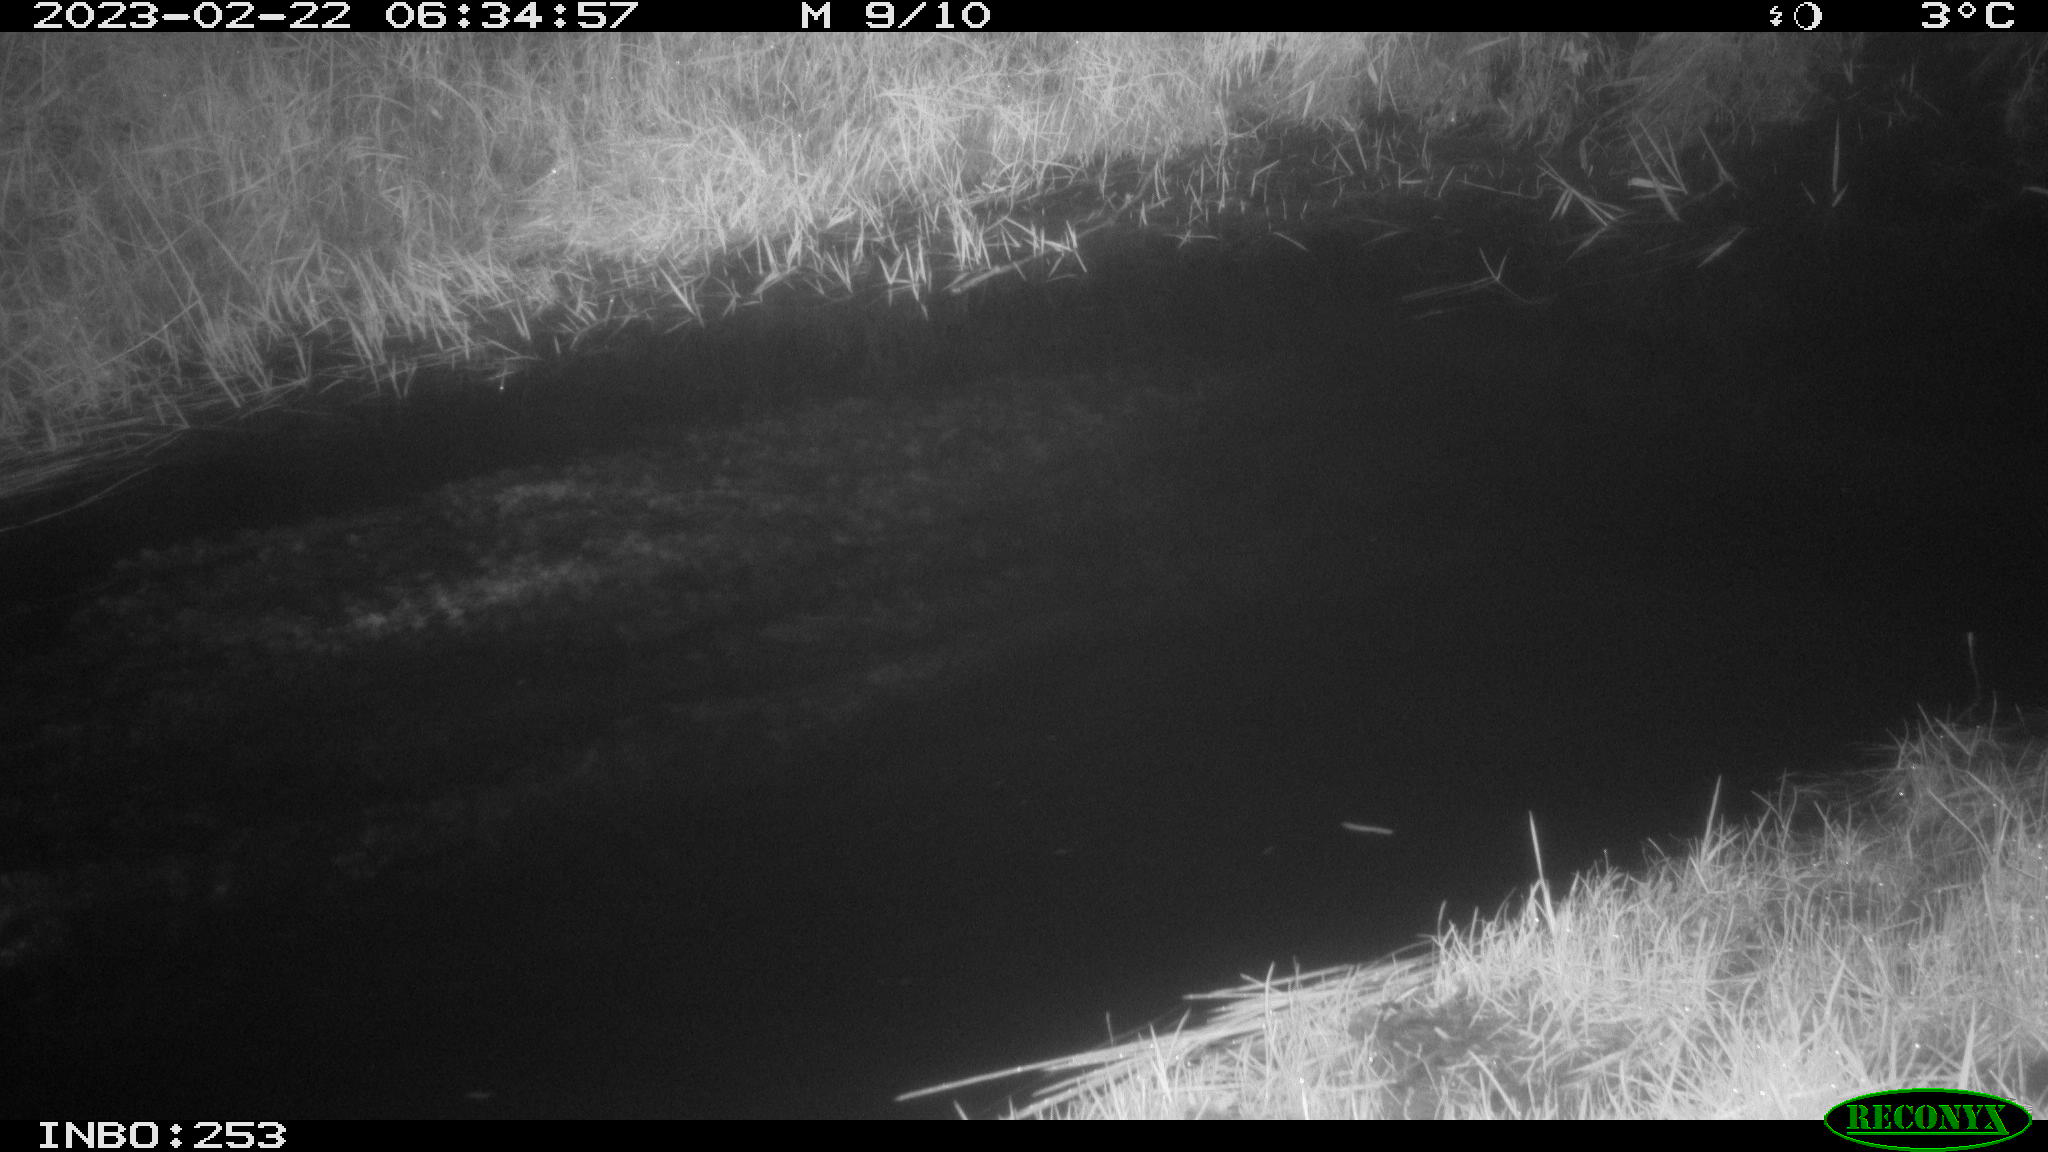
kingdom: Animalia
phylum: Chordata
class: Aves
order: Anseriformes
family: Anatidae
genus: Anas
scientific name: Anas
